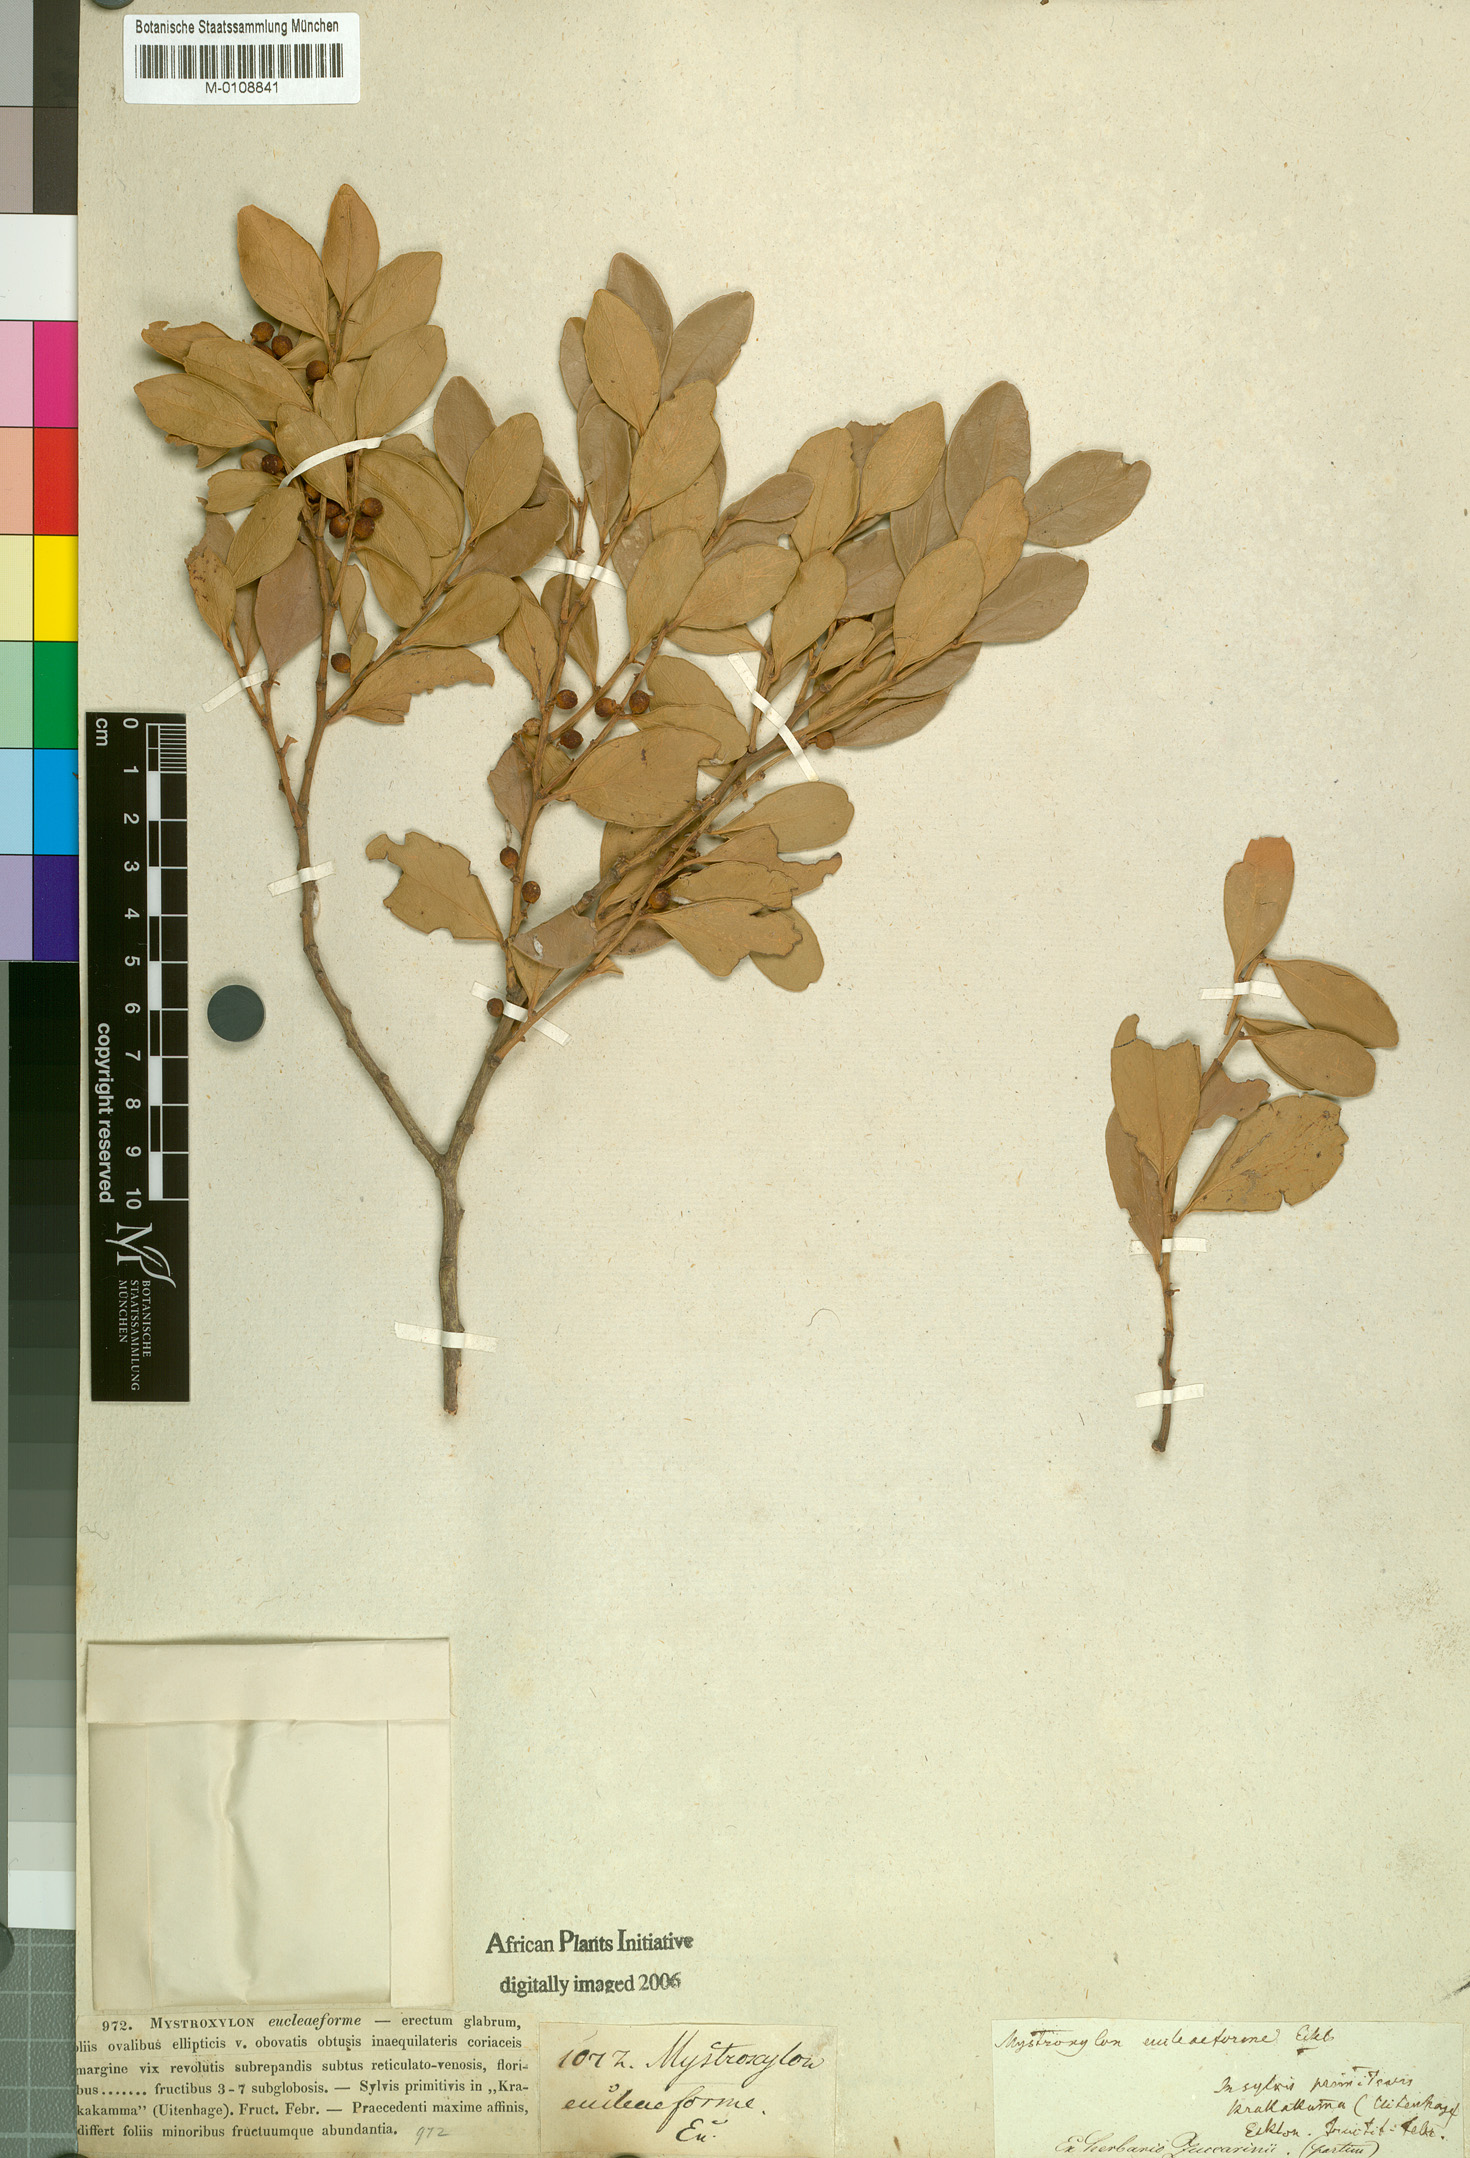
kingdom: Plantae
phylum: Tracheophyta
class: Magnoliopsida
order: Celastrales
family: Celastraceae
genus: Robsonodendron
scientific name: Robsonodendron eucleiforme
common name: Mock silky-bark
